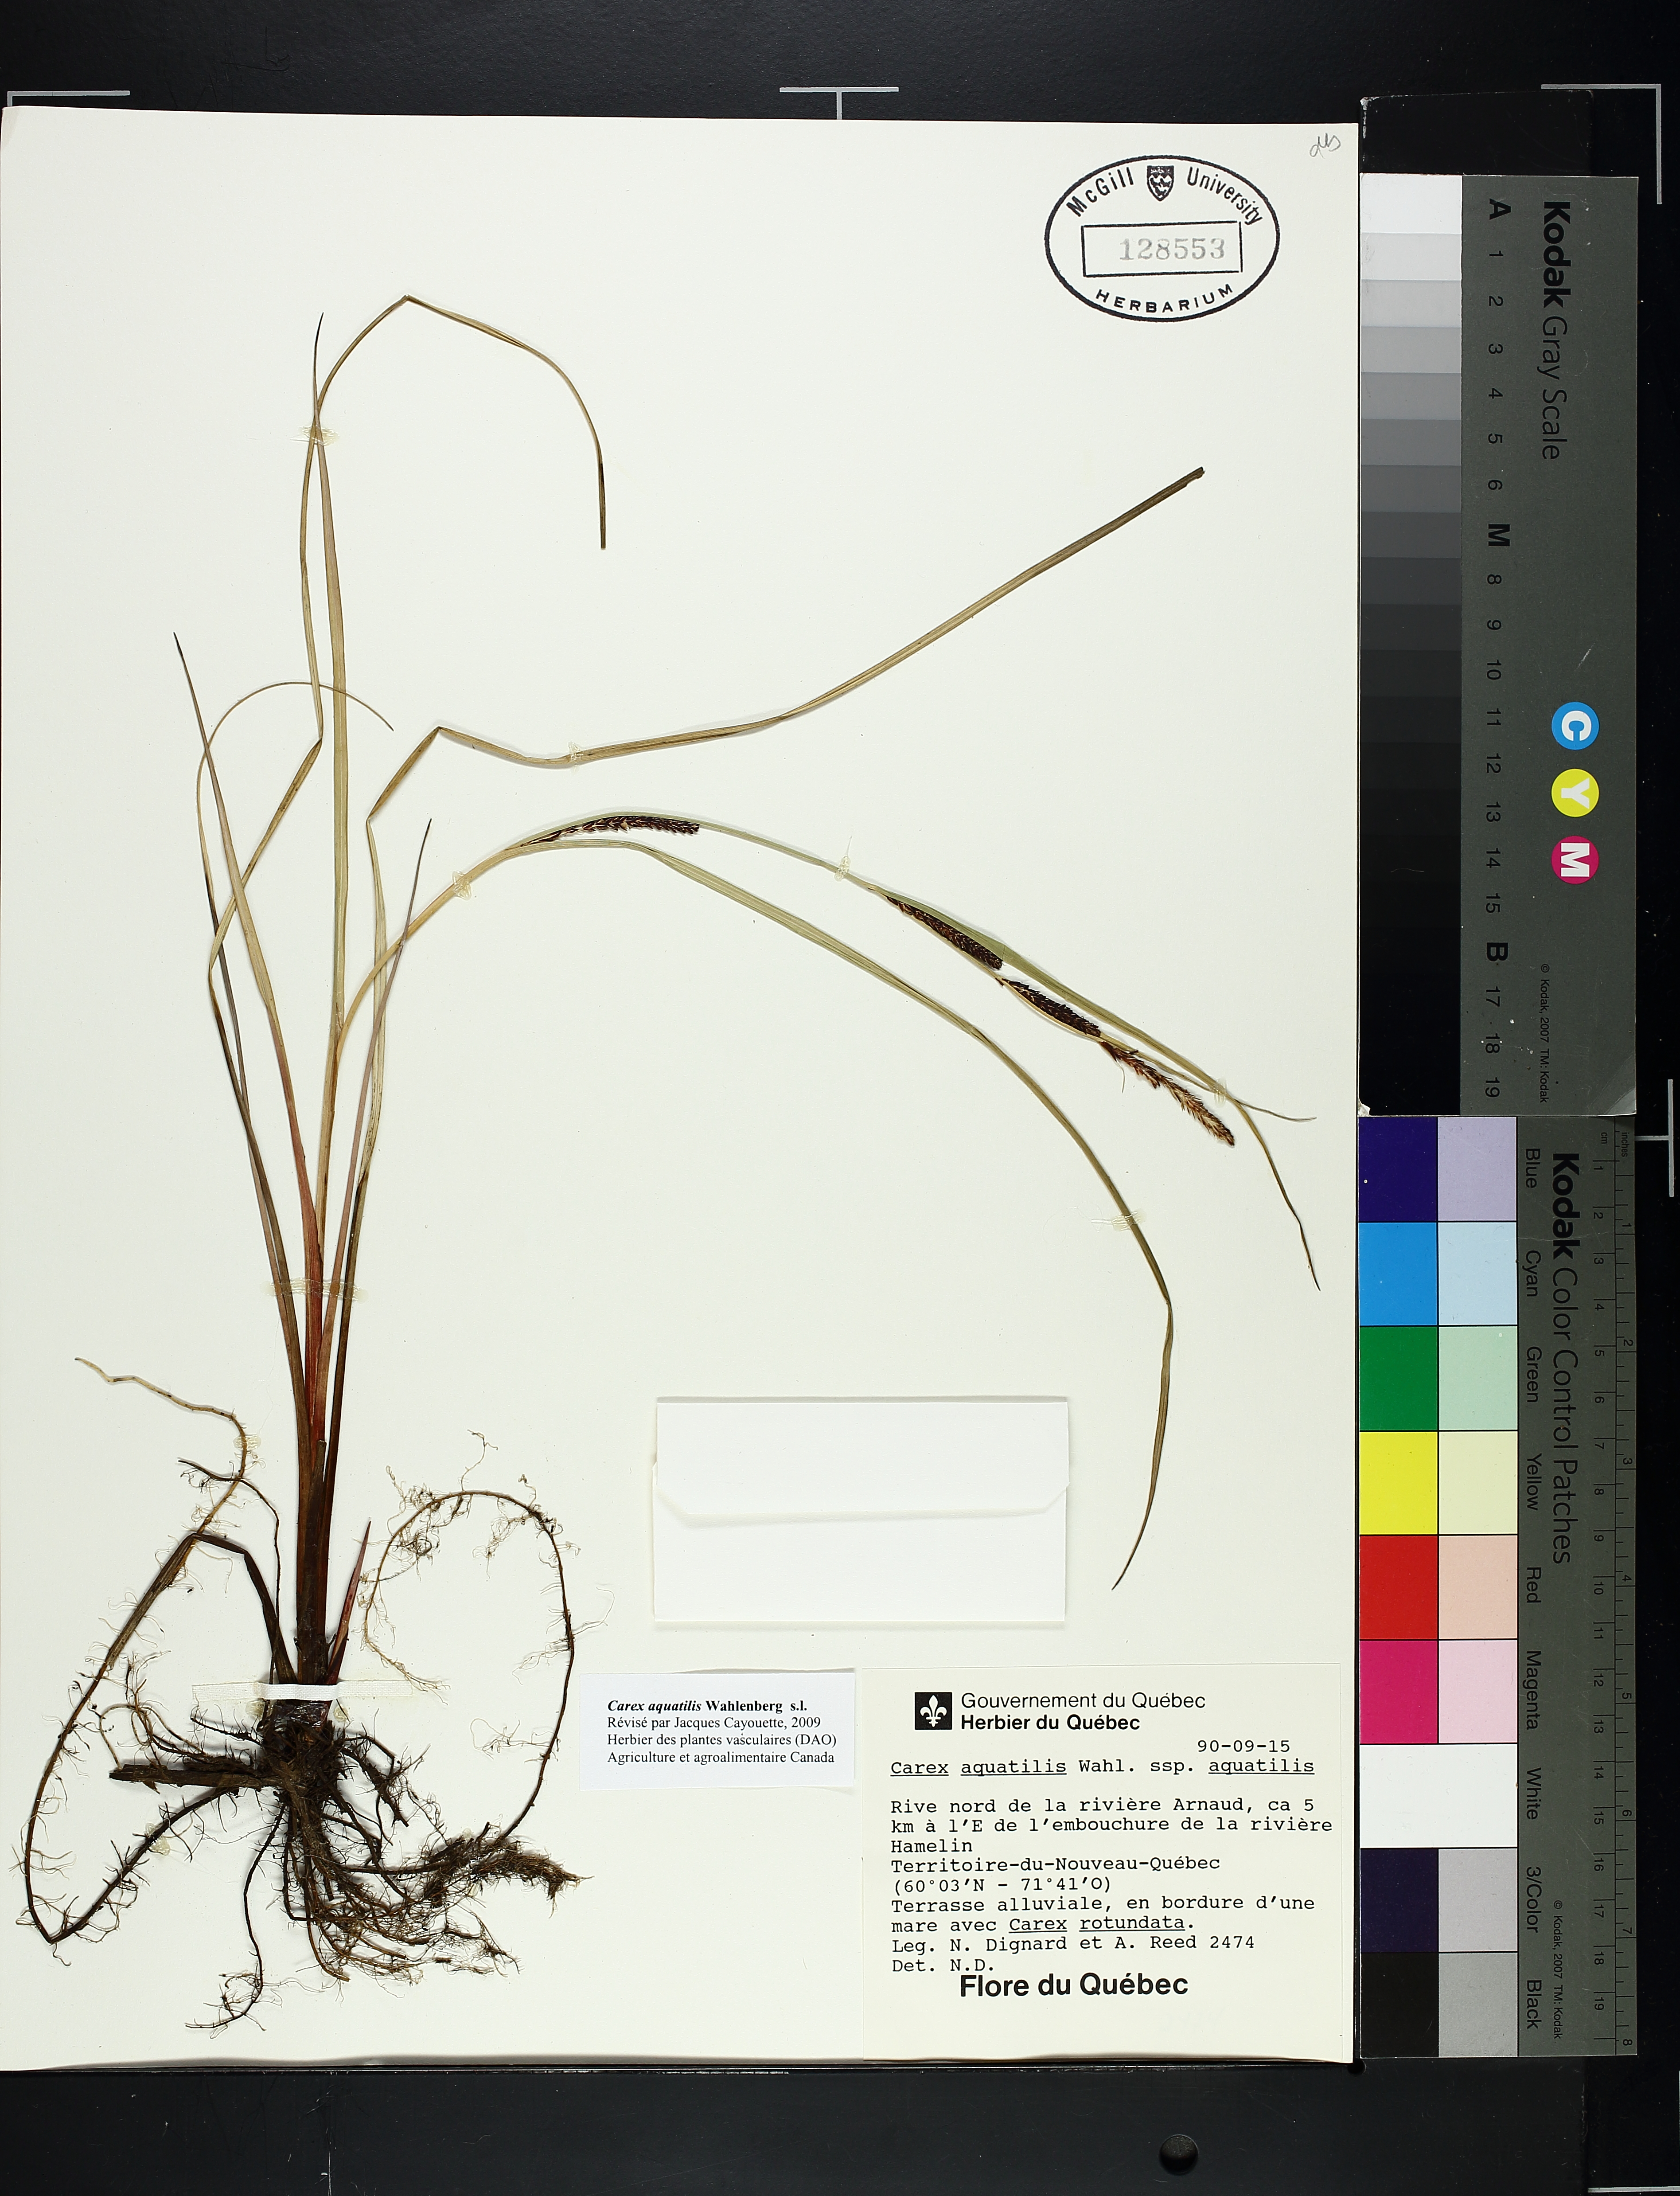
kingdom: Plantae
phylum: Tracheophyta
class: Liliopsida
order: Poales
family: Cyperaceae
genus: Carex
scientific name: Carex aquatilis
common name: Water sedge
